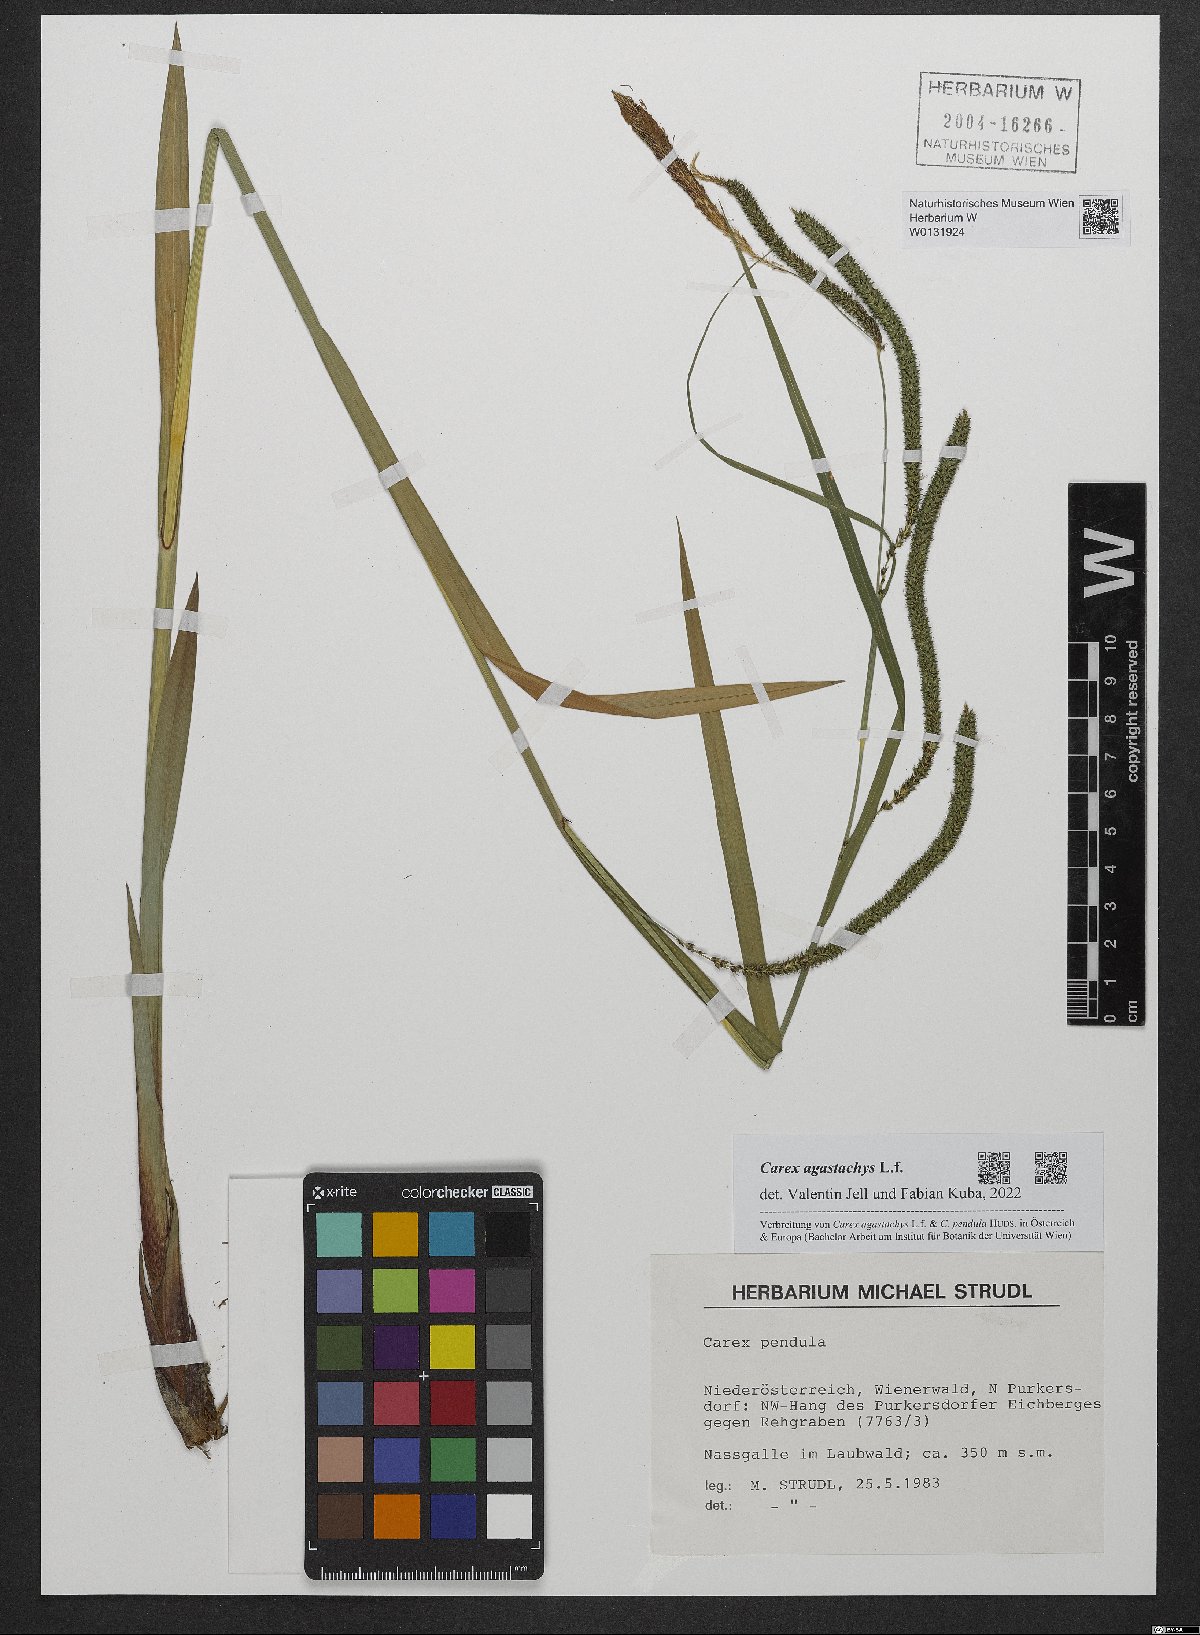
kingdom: Plantae
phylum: Tracheophyta
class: Liliopsida
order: Poales
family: Cyperaceae
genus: Carex
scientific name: Carex agastachys
